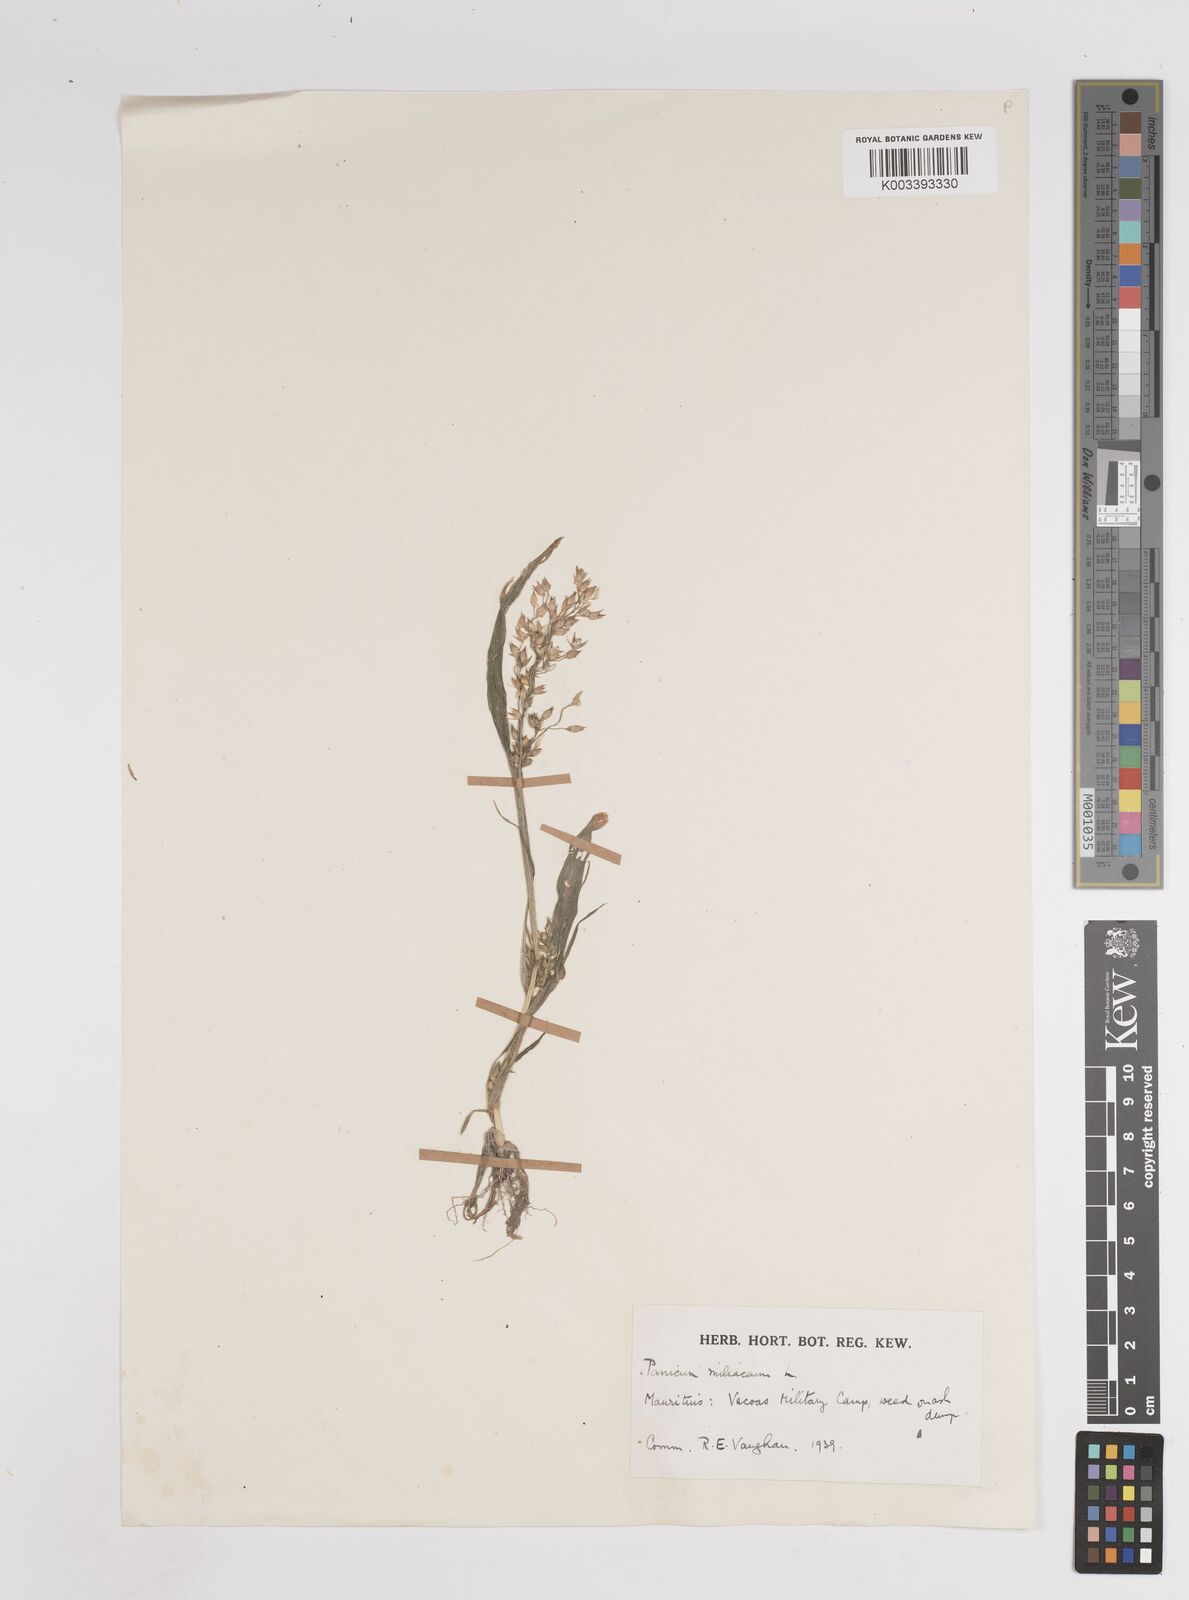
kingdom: Plantae
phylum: Tracheophyta
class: Liliopsida
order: Poales
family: Poaceae
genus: Panicum
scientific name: Panicum miliaceum
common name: Common millet
